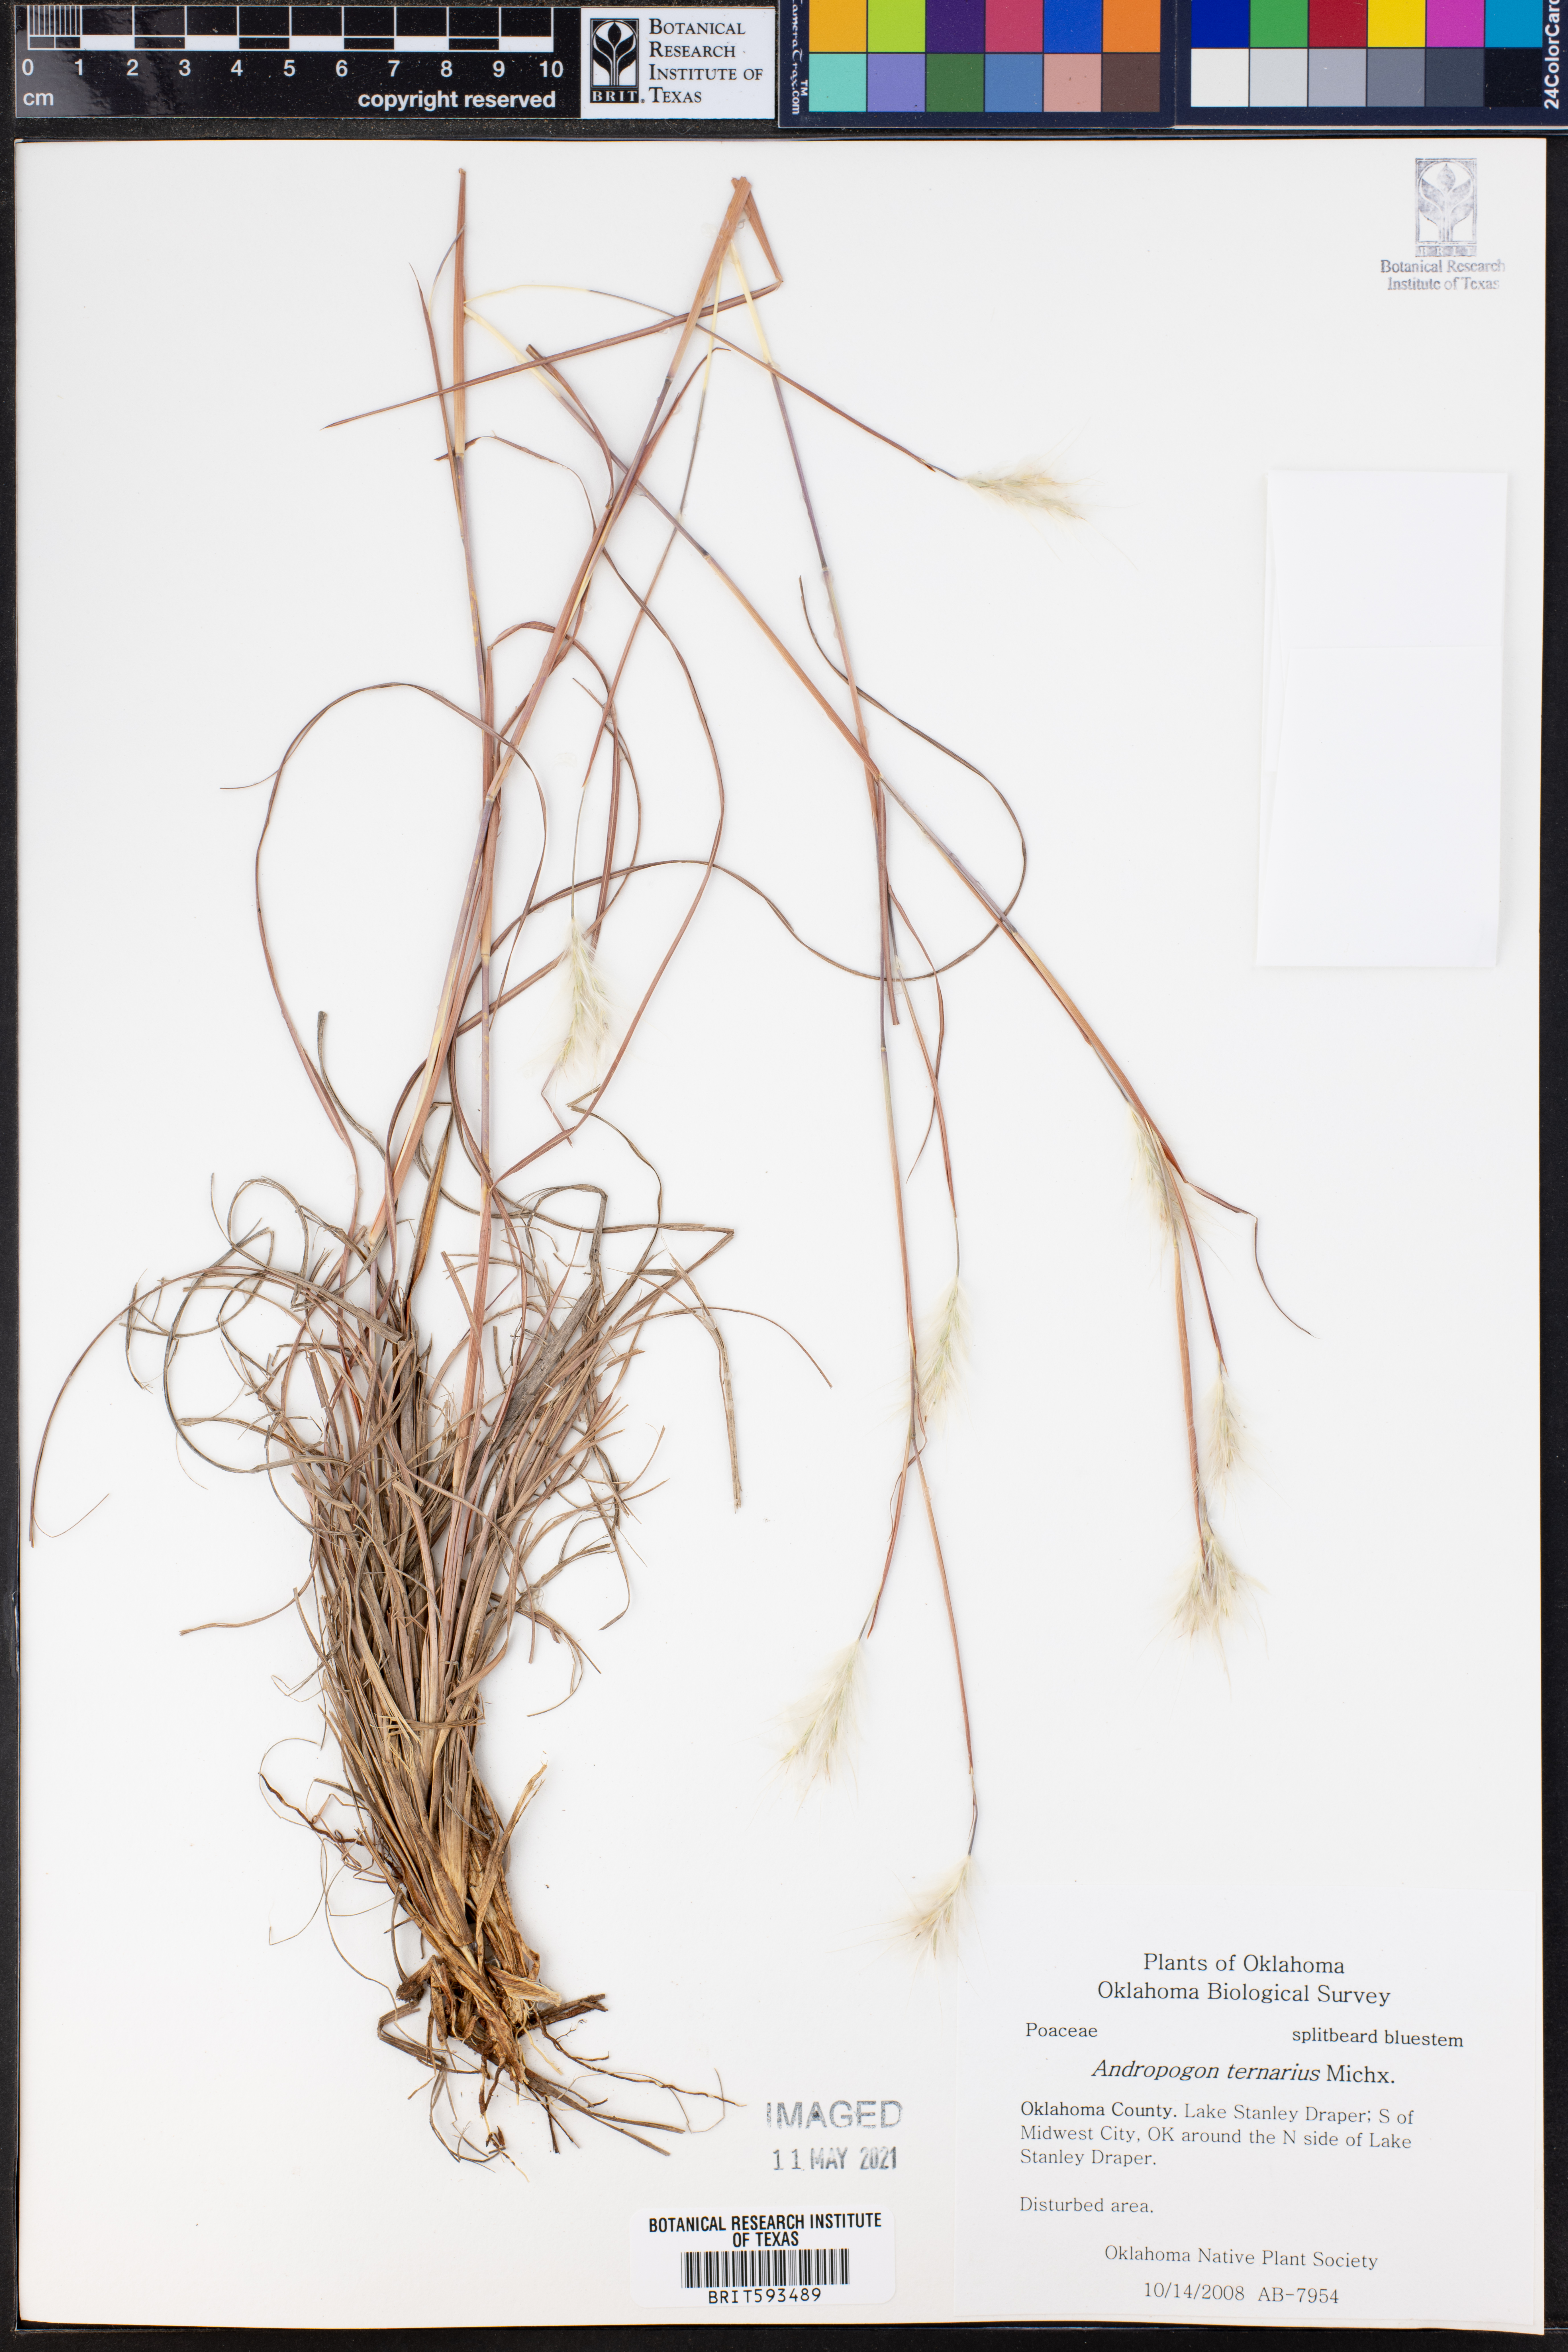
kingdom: Plantae
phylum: Tracheophyta
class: Liliopsida
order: Poales
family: Poaceae
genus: Andropogon
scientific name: Andropogon ternarius
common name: Split bluestem
